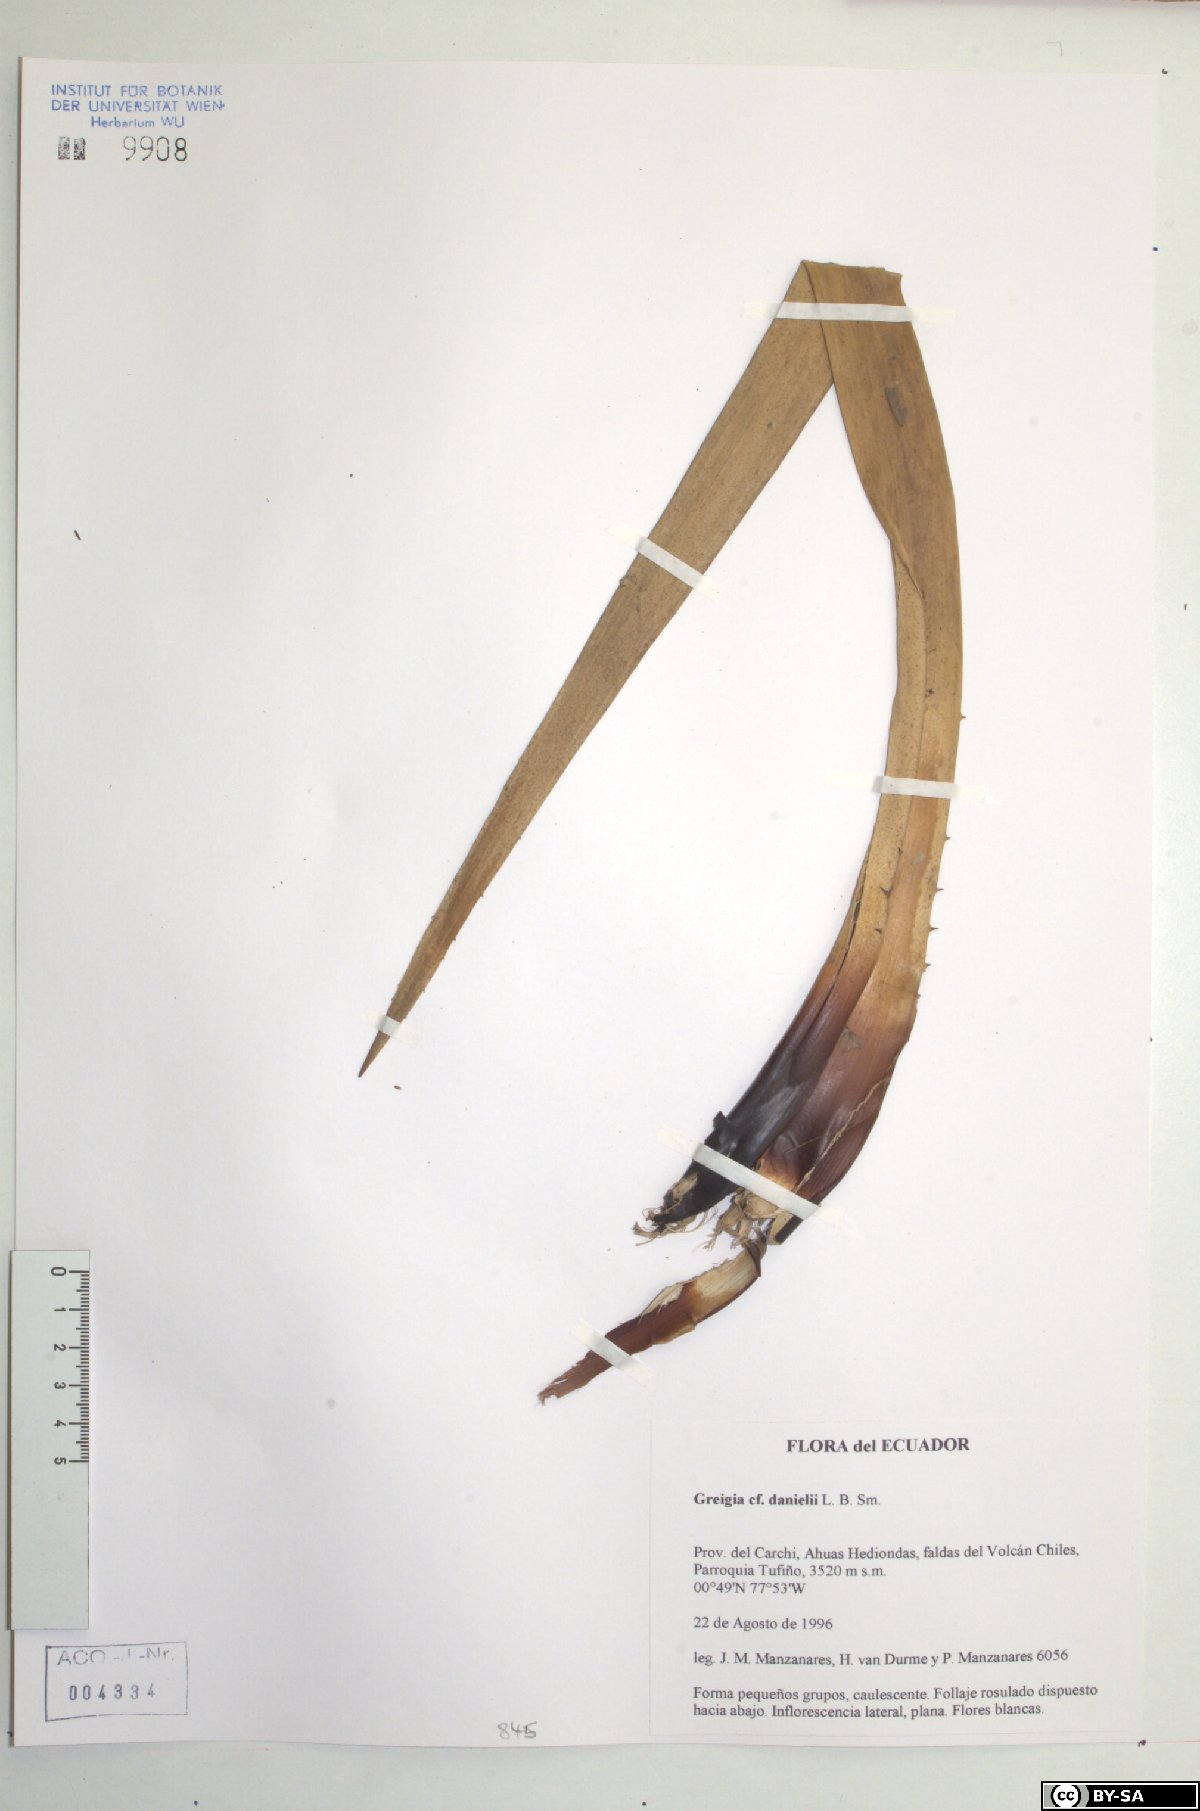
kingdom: Plantae
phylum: Tracheophyta
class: Liliopsida
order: Poales
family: Bromeliaceae
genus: Greigia
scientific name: Greigia danielii
